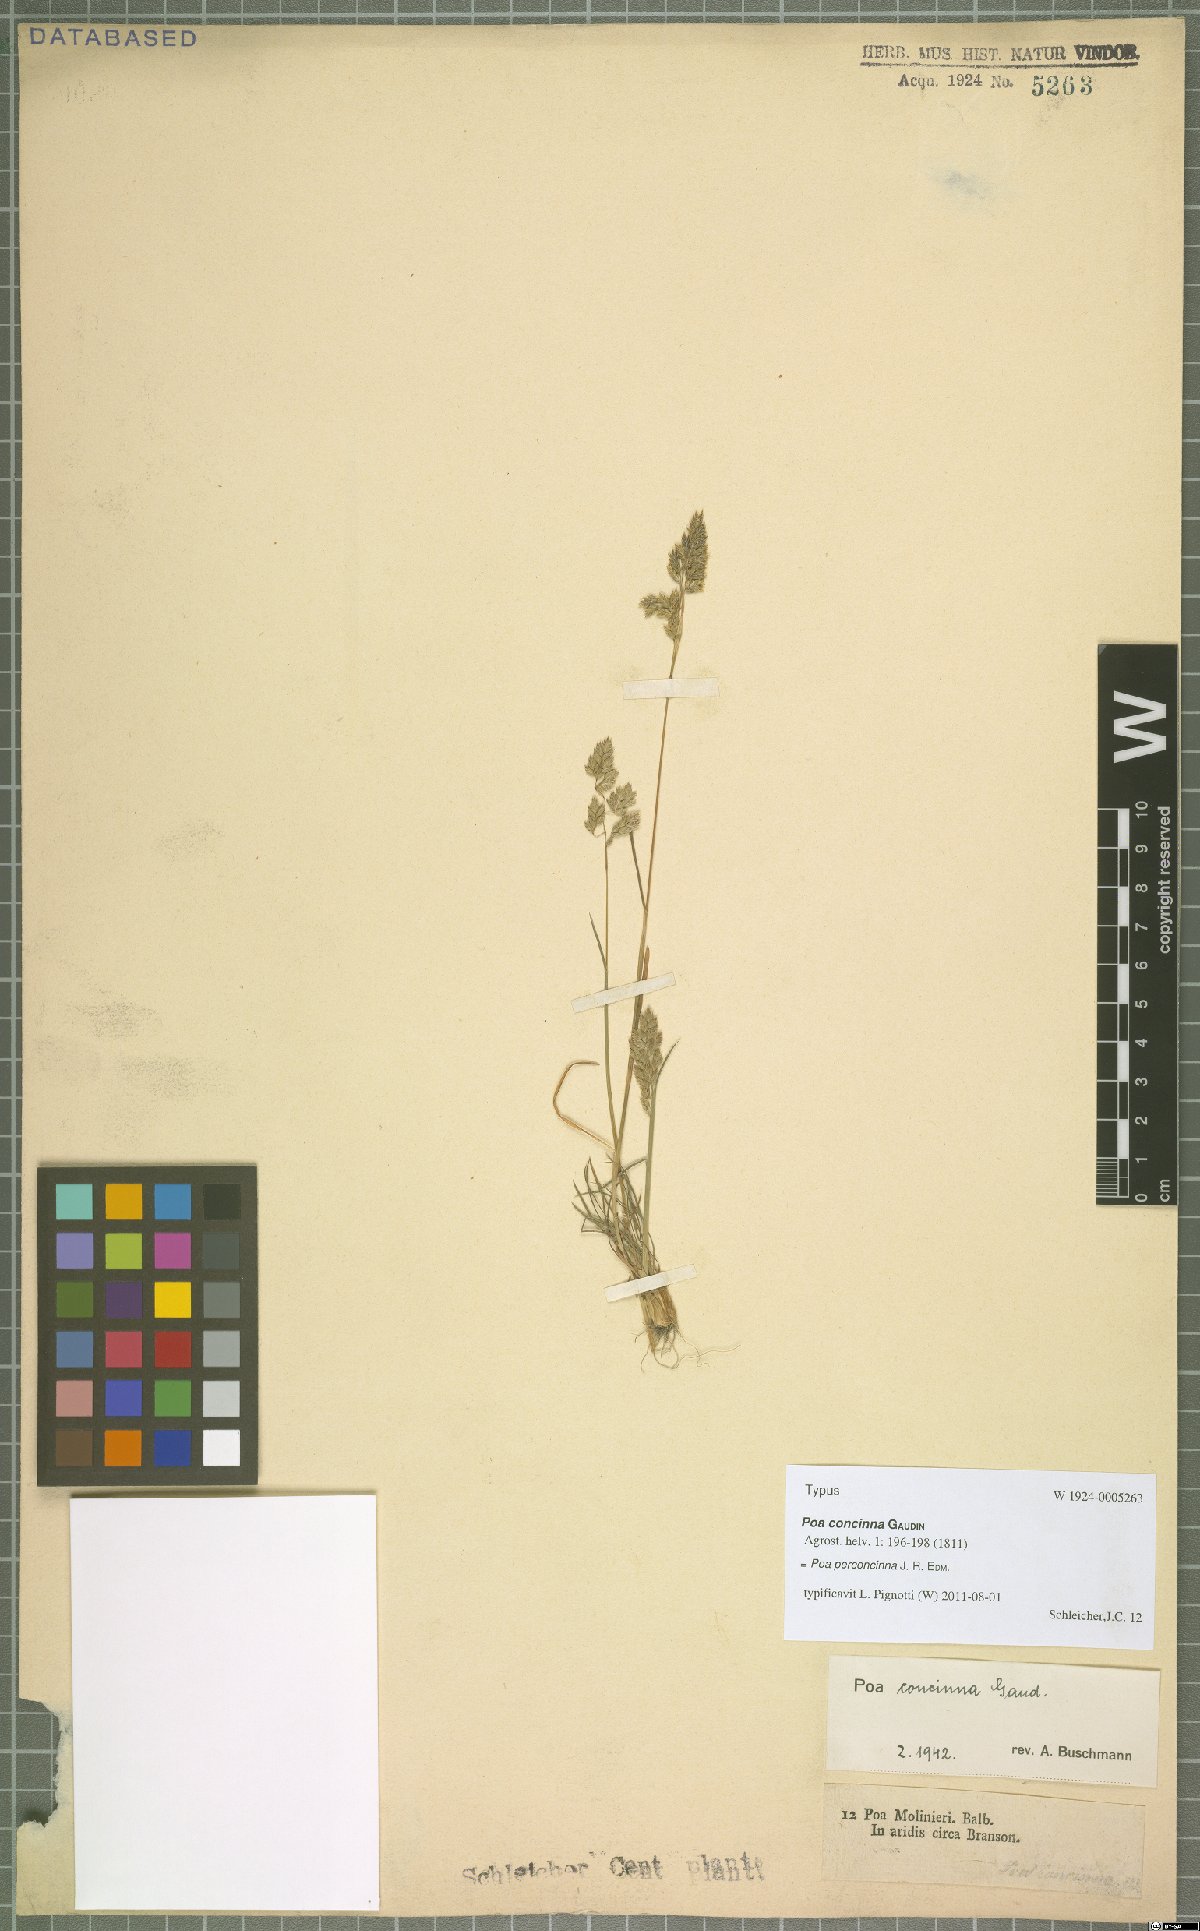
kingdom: Plantae
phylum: Tracheophyta
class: Liliopsida
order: Poales
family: Poaceae
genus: Poa
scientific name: Poa perconcinna
